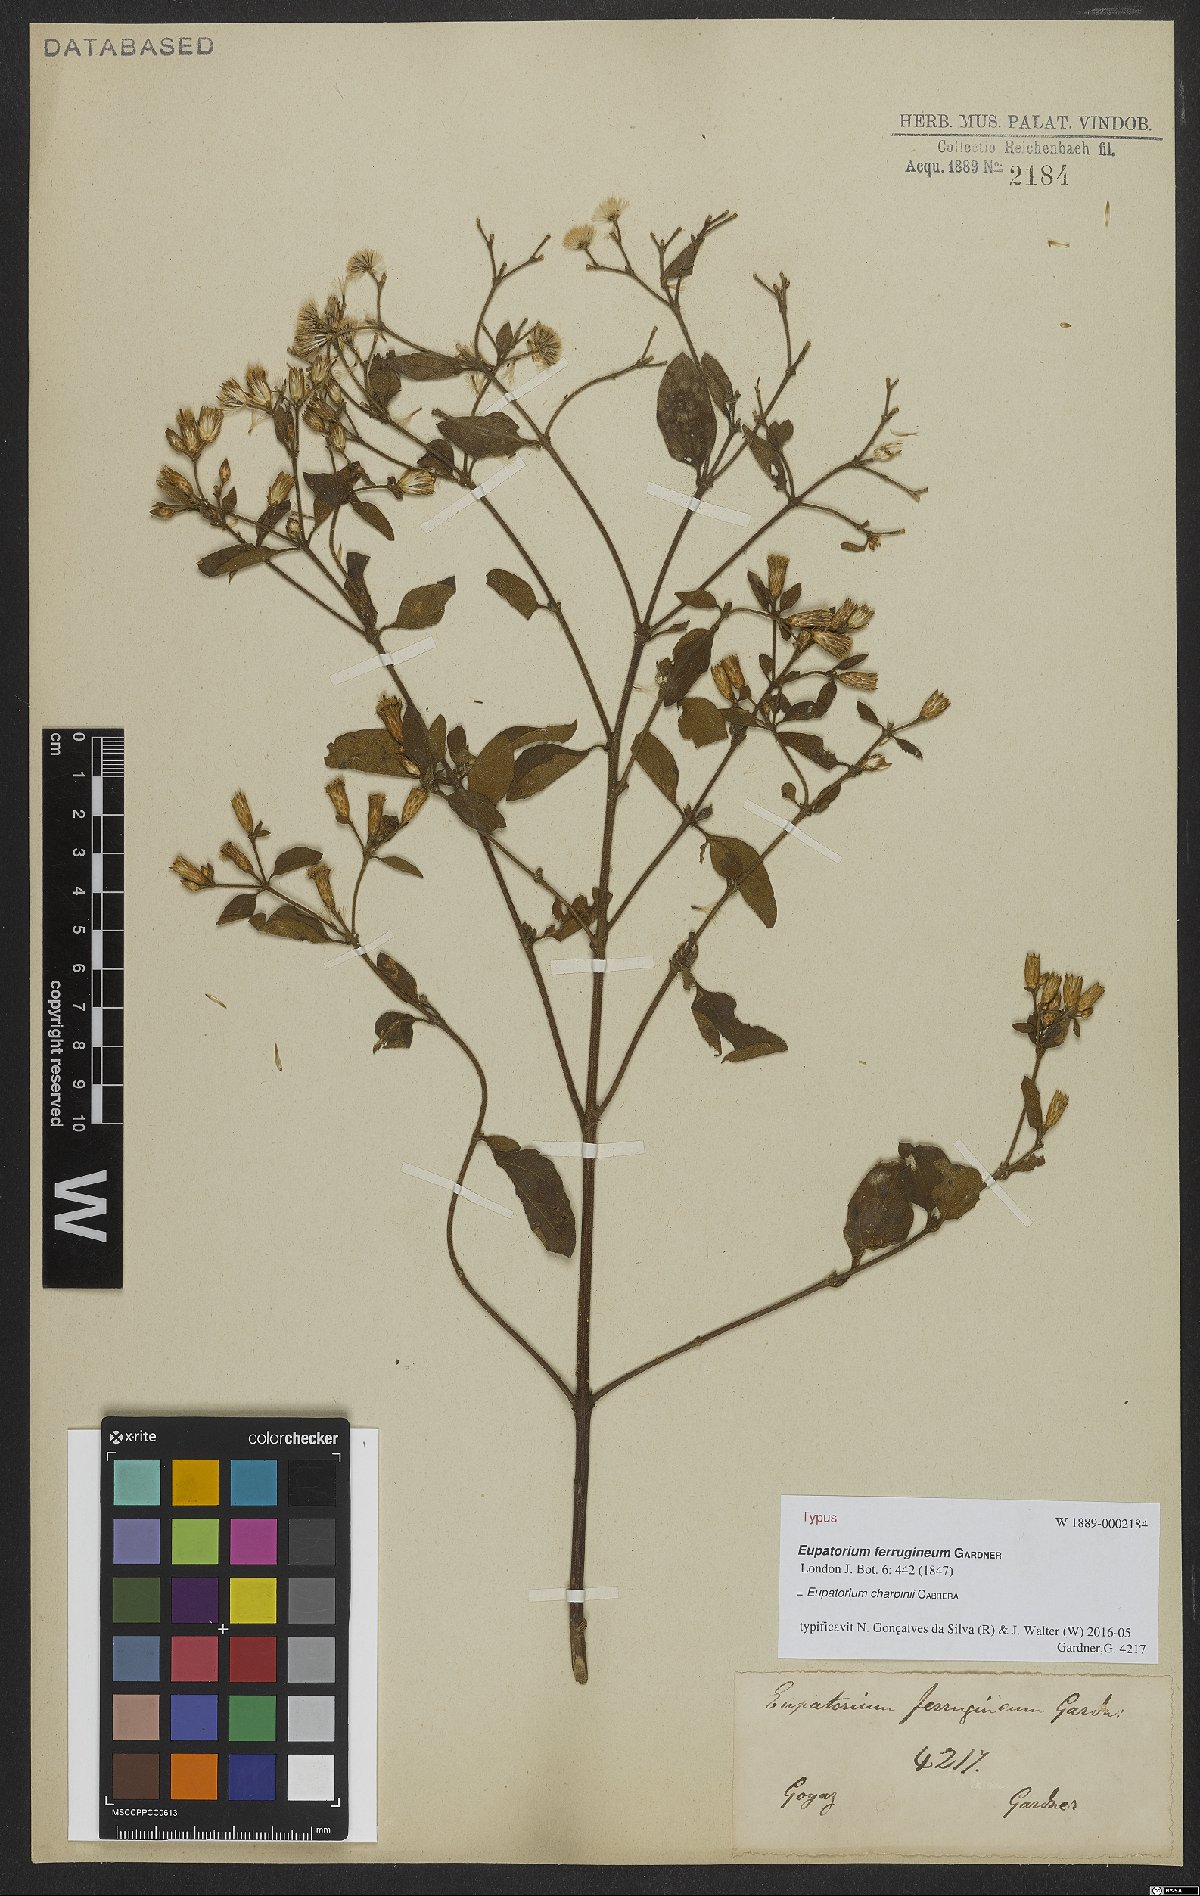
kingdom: Plantae
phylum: Tracheophyta
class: Magnoliopsida
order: Asterales
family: Asteraceae
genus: Chromolaena
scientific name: Chromolaena ferruginea
